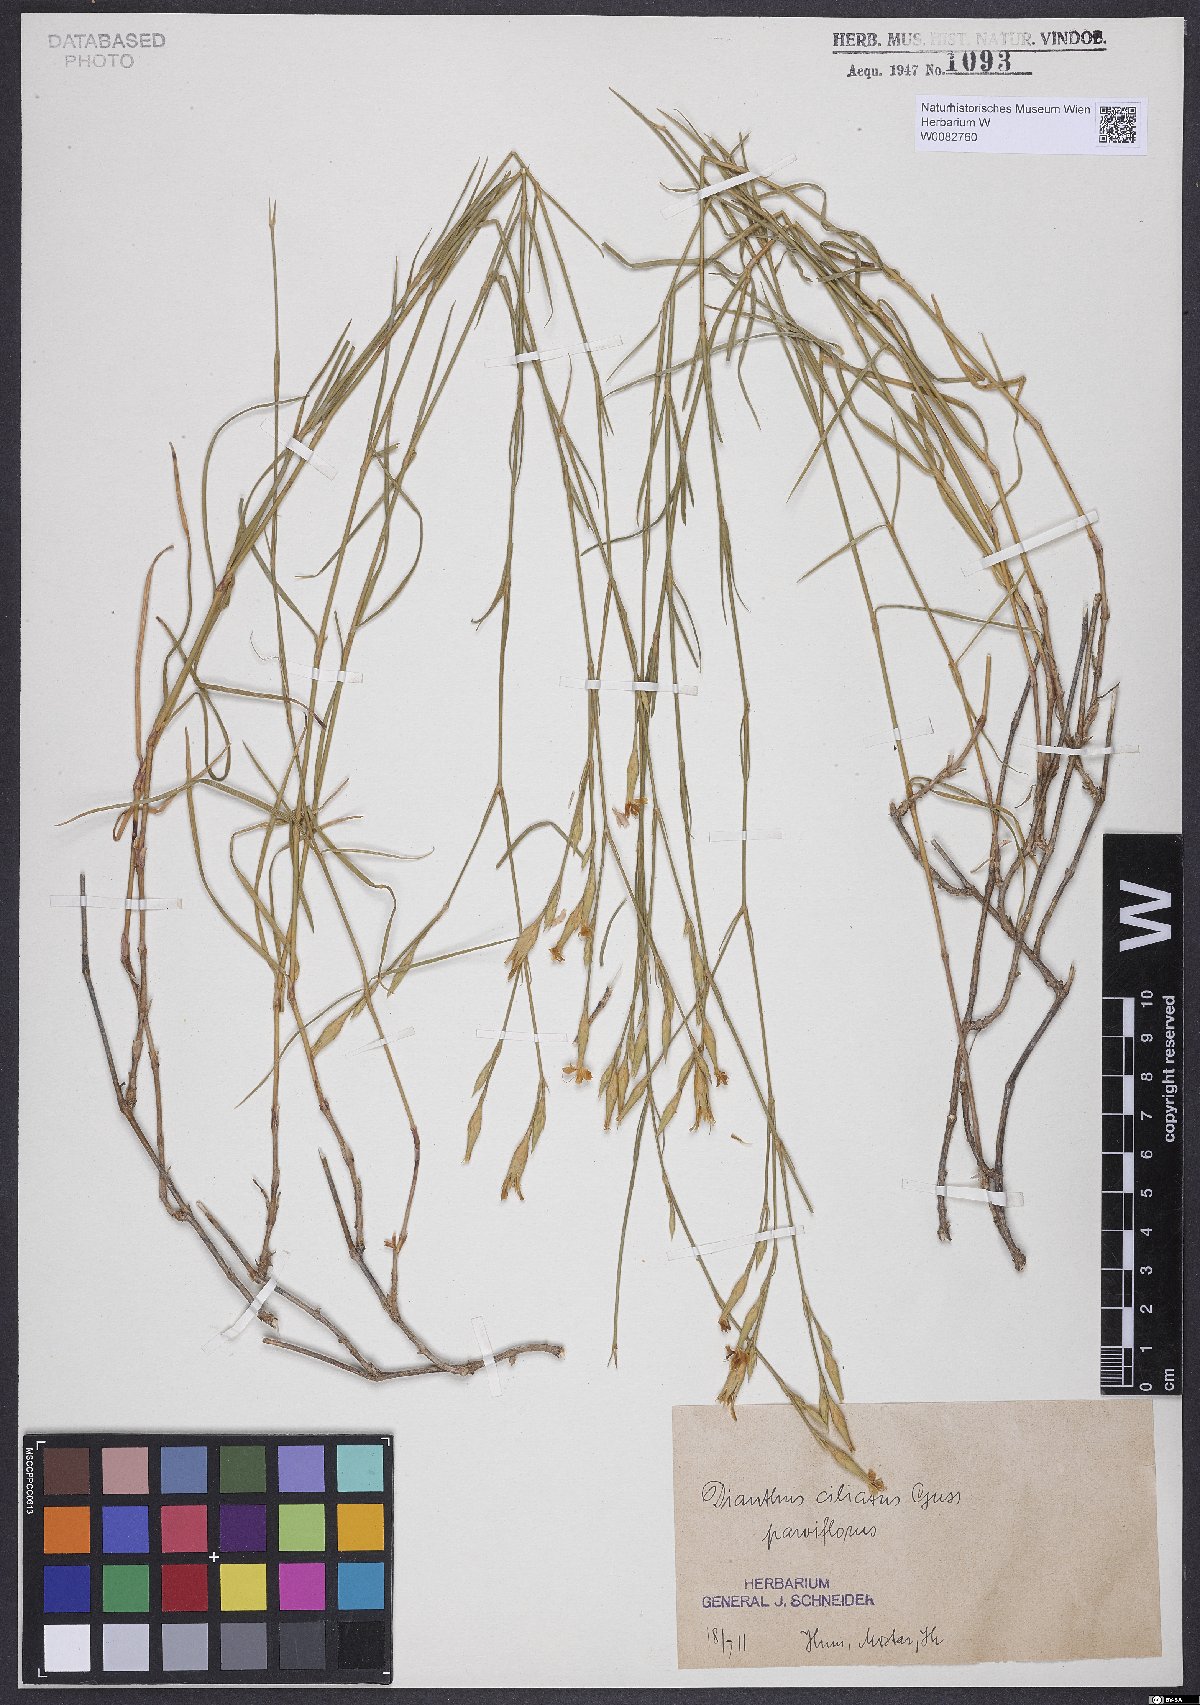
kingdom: Plantae
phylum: Tracheophyta
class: Magnoliopsida
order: Caryophyllales
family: Caryophyllaceae
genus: Dianthus
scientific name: Dianthus ciliatus
